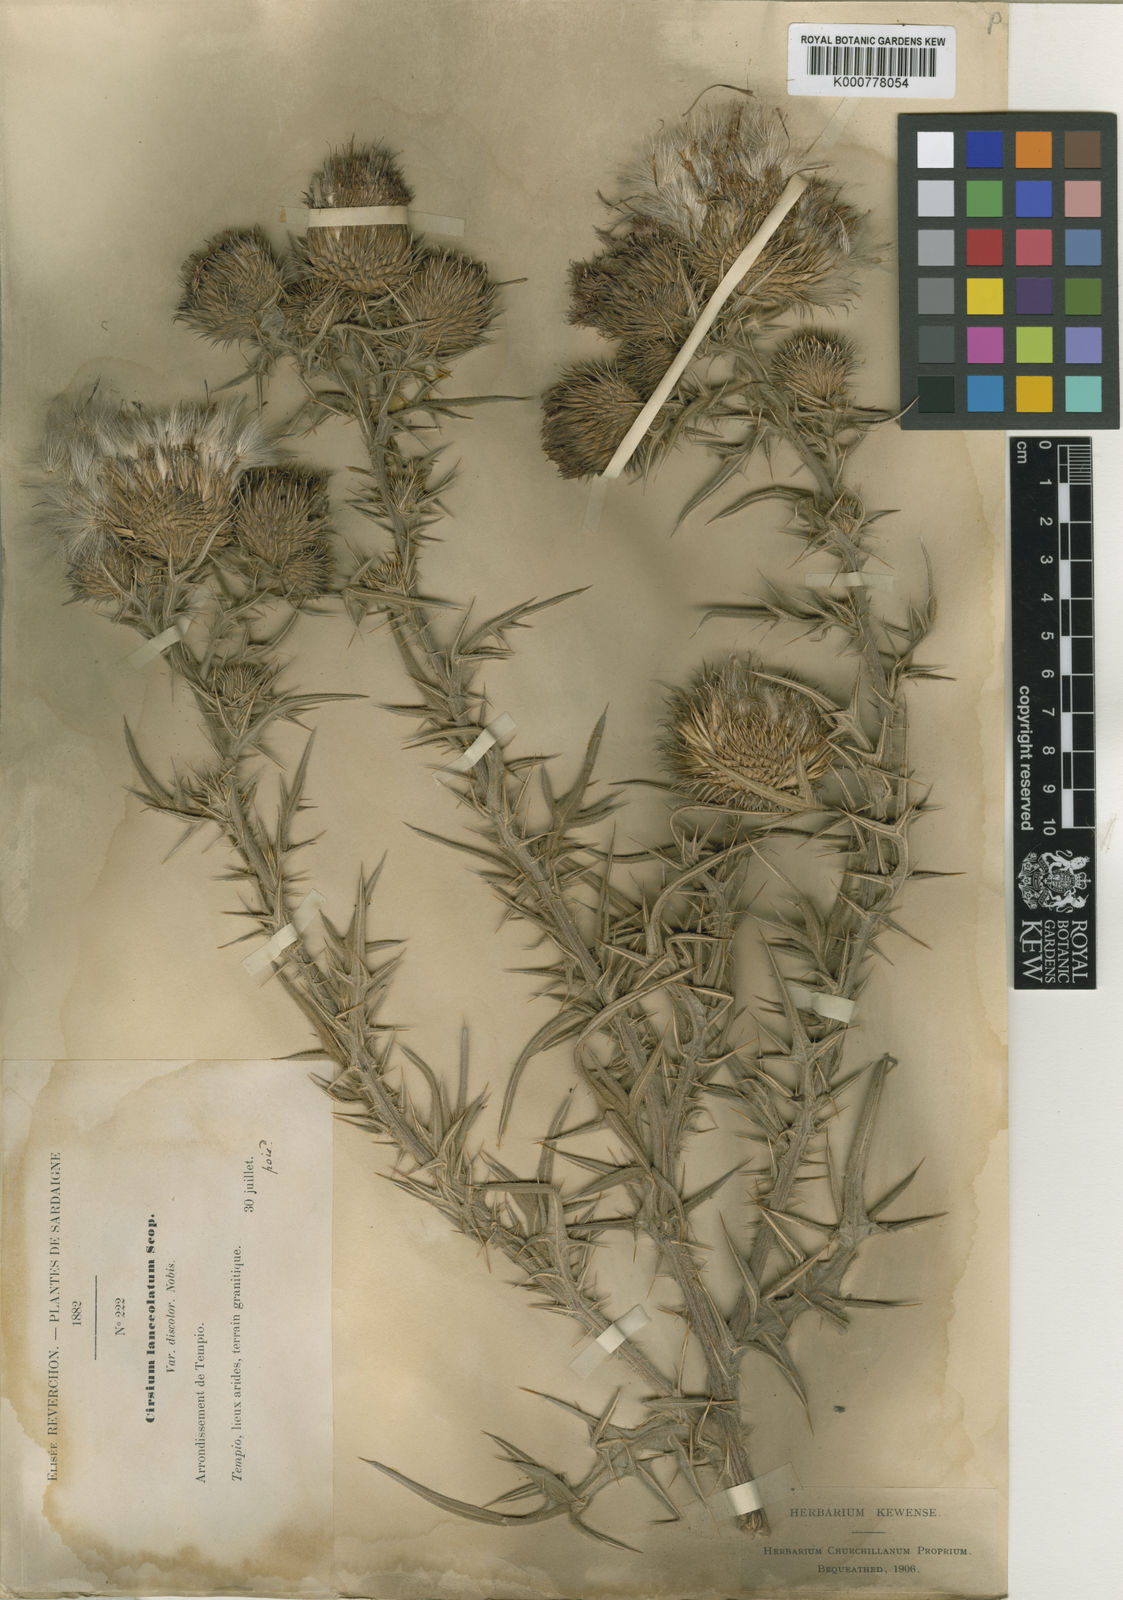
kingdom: Plantae
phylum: Tracheophyta
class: Magnoliopsida
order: Asterales
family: Asteraceae
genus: Cirsium
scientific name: Cirsium vulgare
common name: Bull thistle
